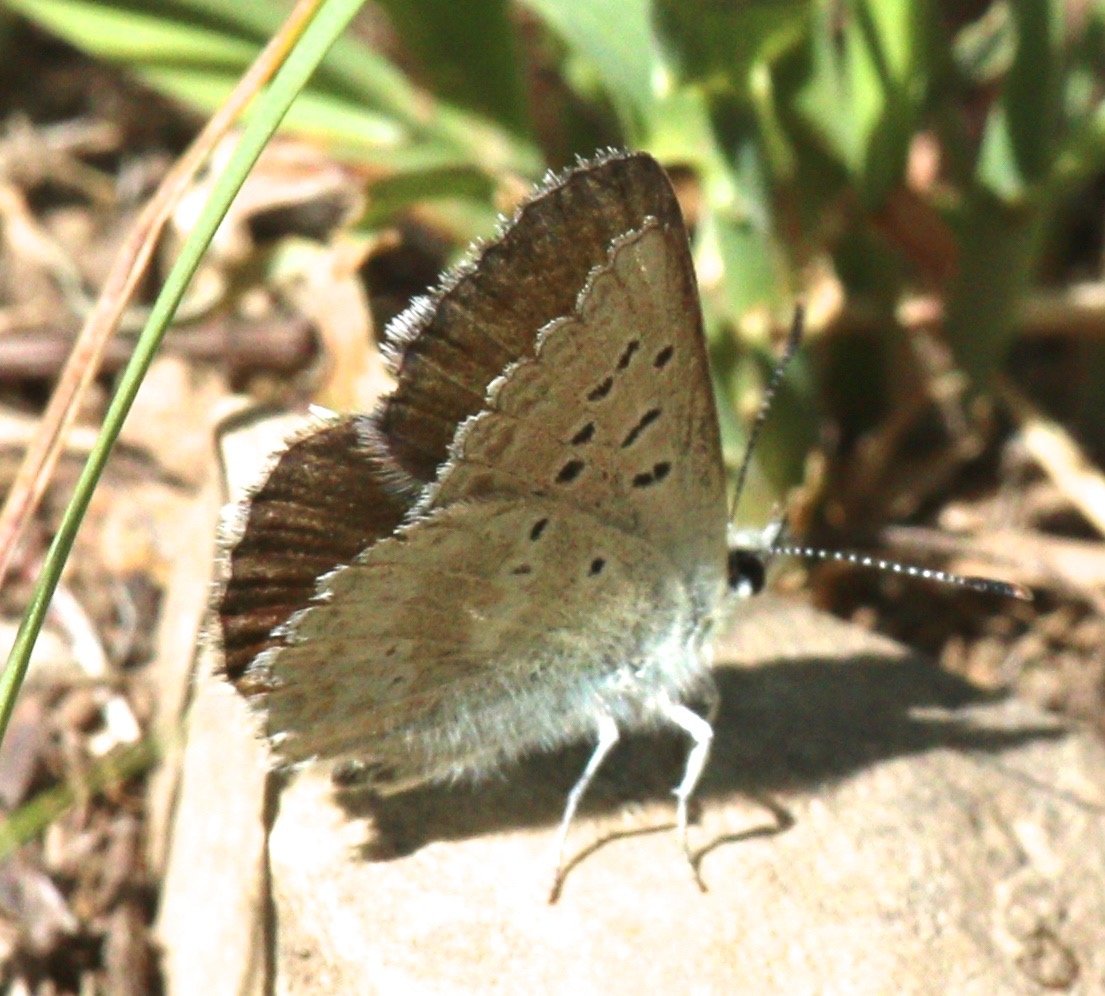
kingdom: Animalia
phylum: Arthropoda
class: Insecta
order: Lepidoptera
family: Lycaenidae
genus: Agriades
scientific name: Agriades glandon
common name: Arctic Blue
